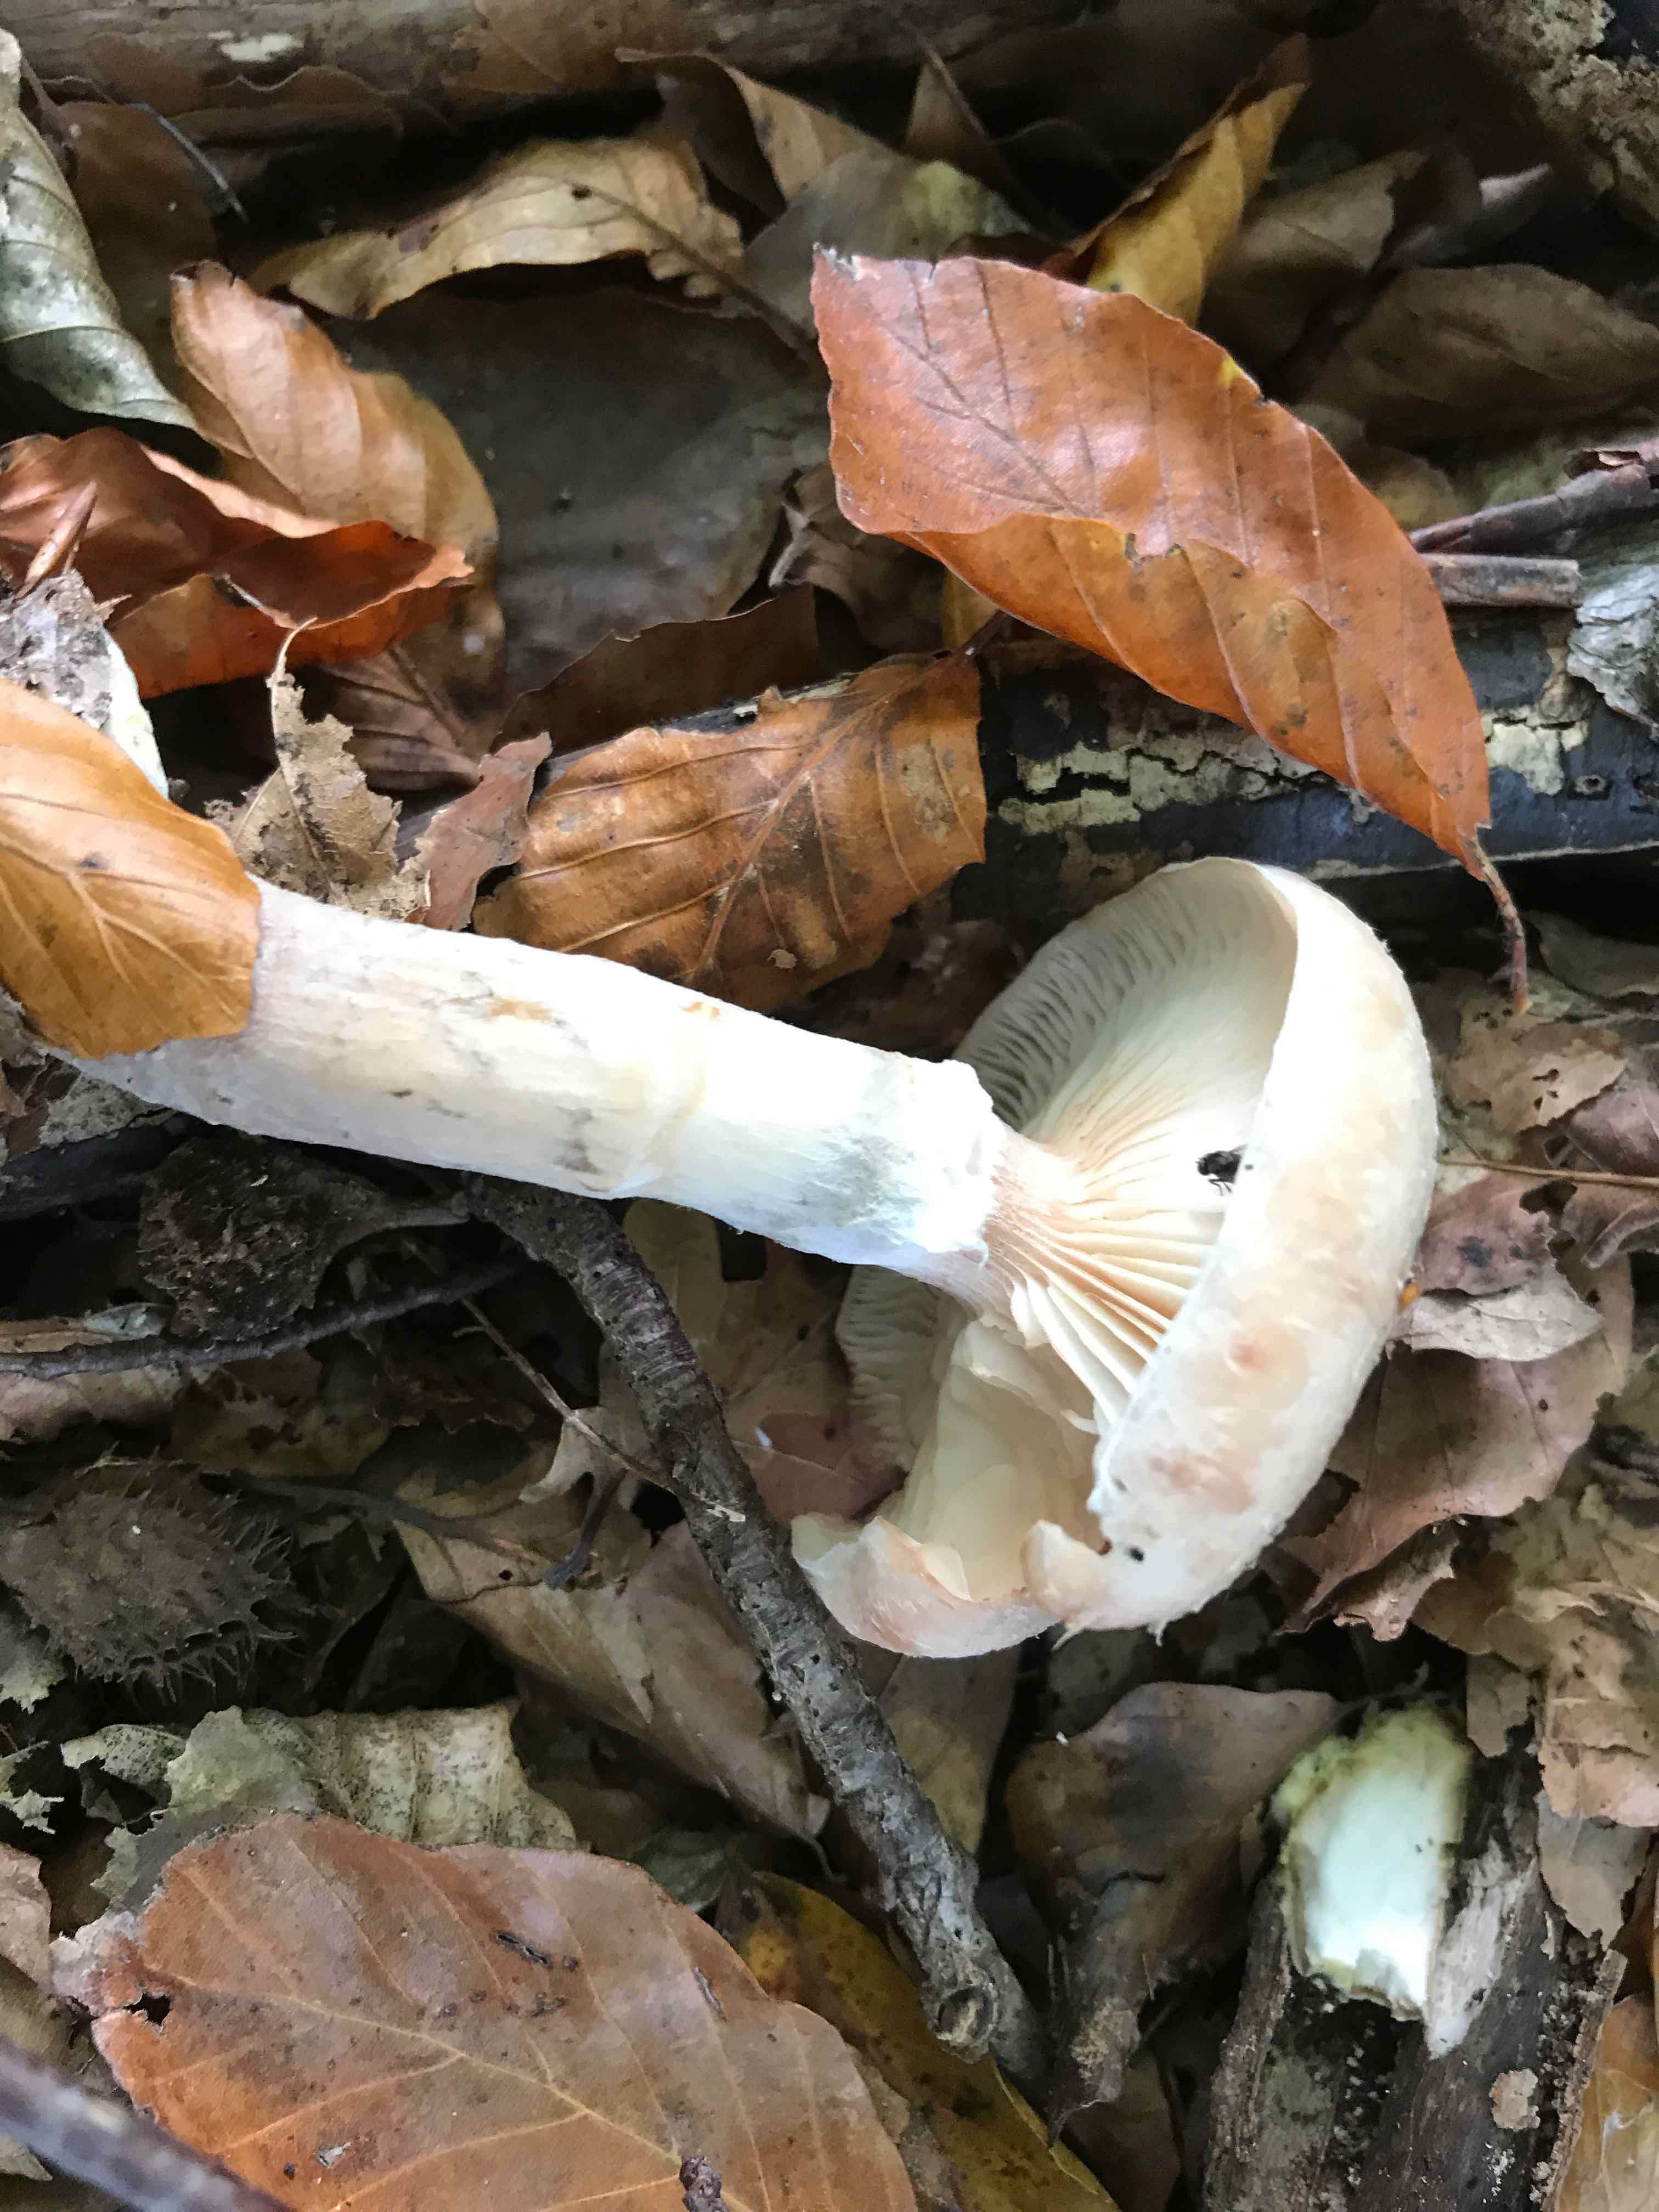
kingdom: Fungi
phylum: Basidiomycota
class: Agaricomycetes
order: Agaricales
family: Physalacriaceae
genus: Armillaria
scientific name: Armillaria lutea
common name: køllestokket honningsvamp
